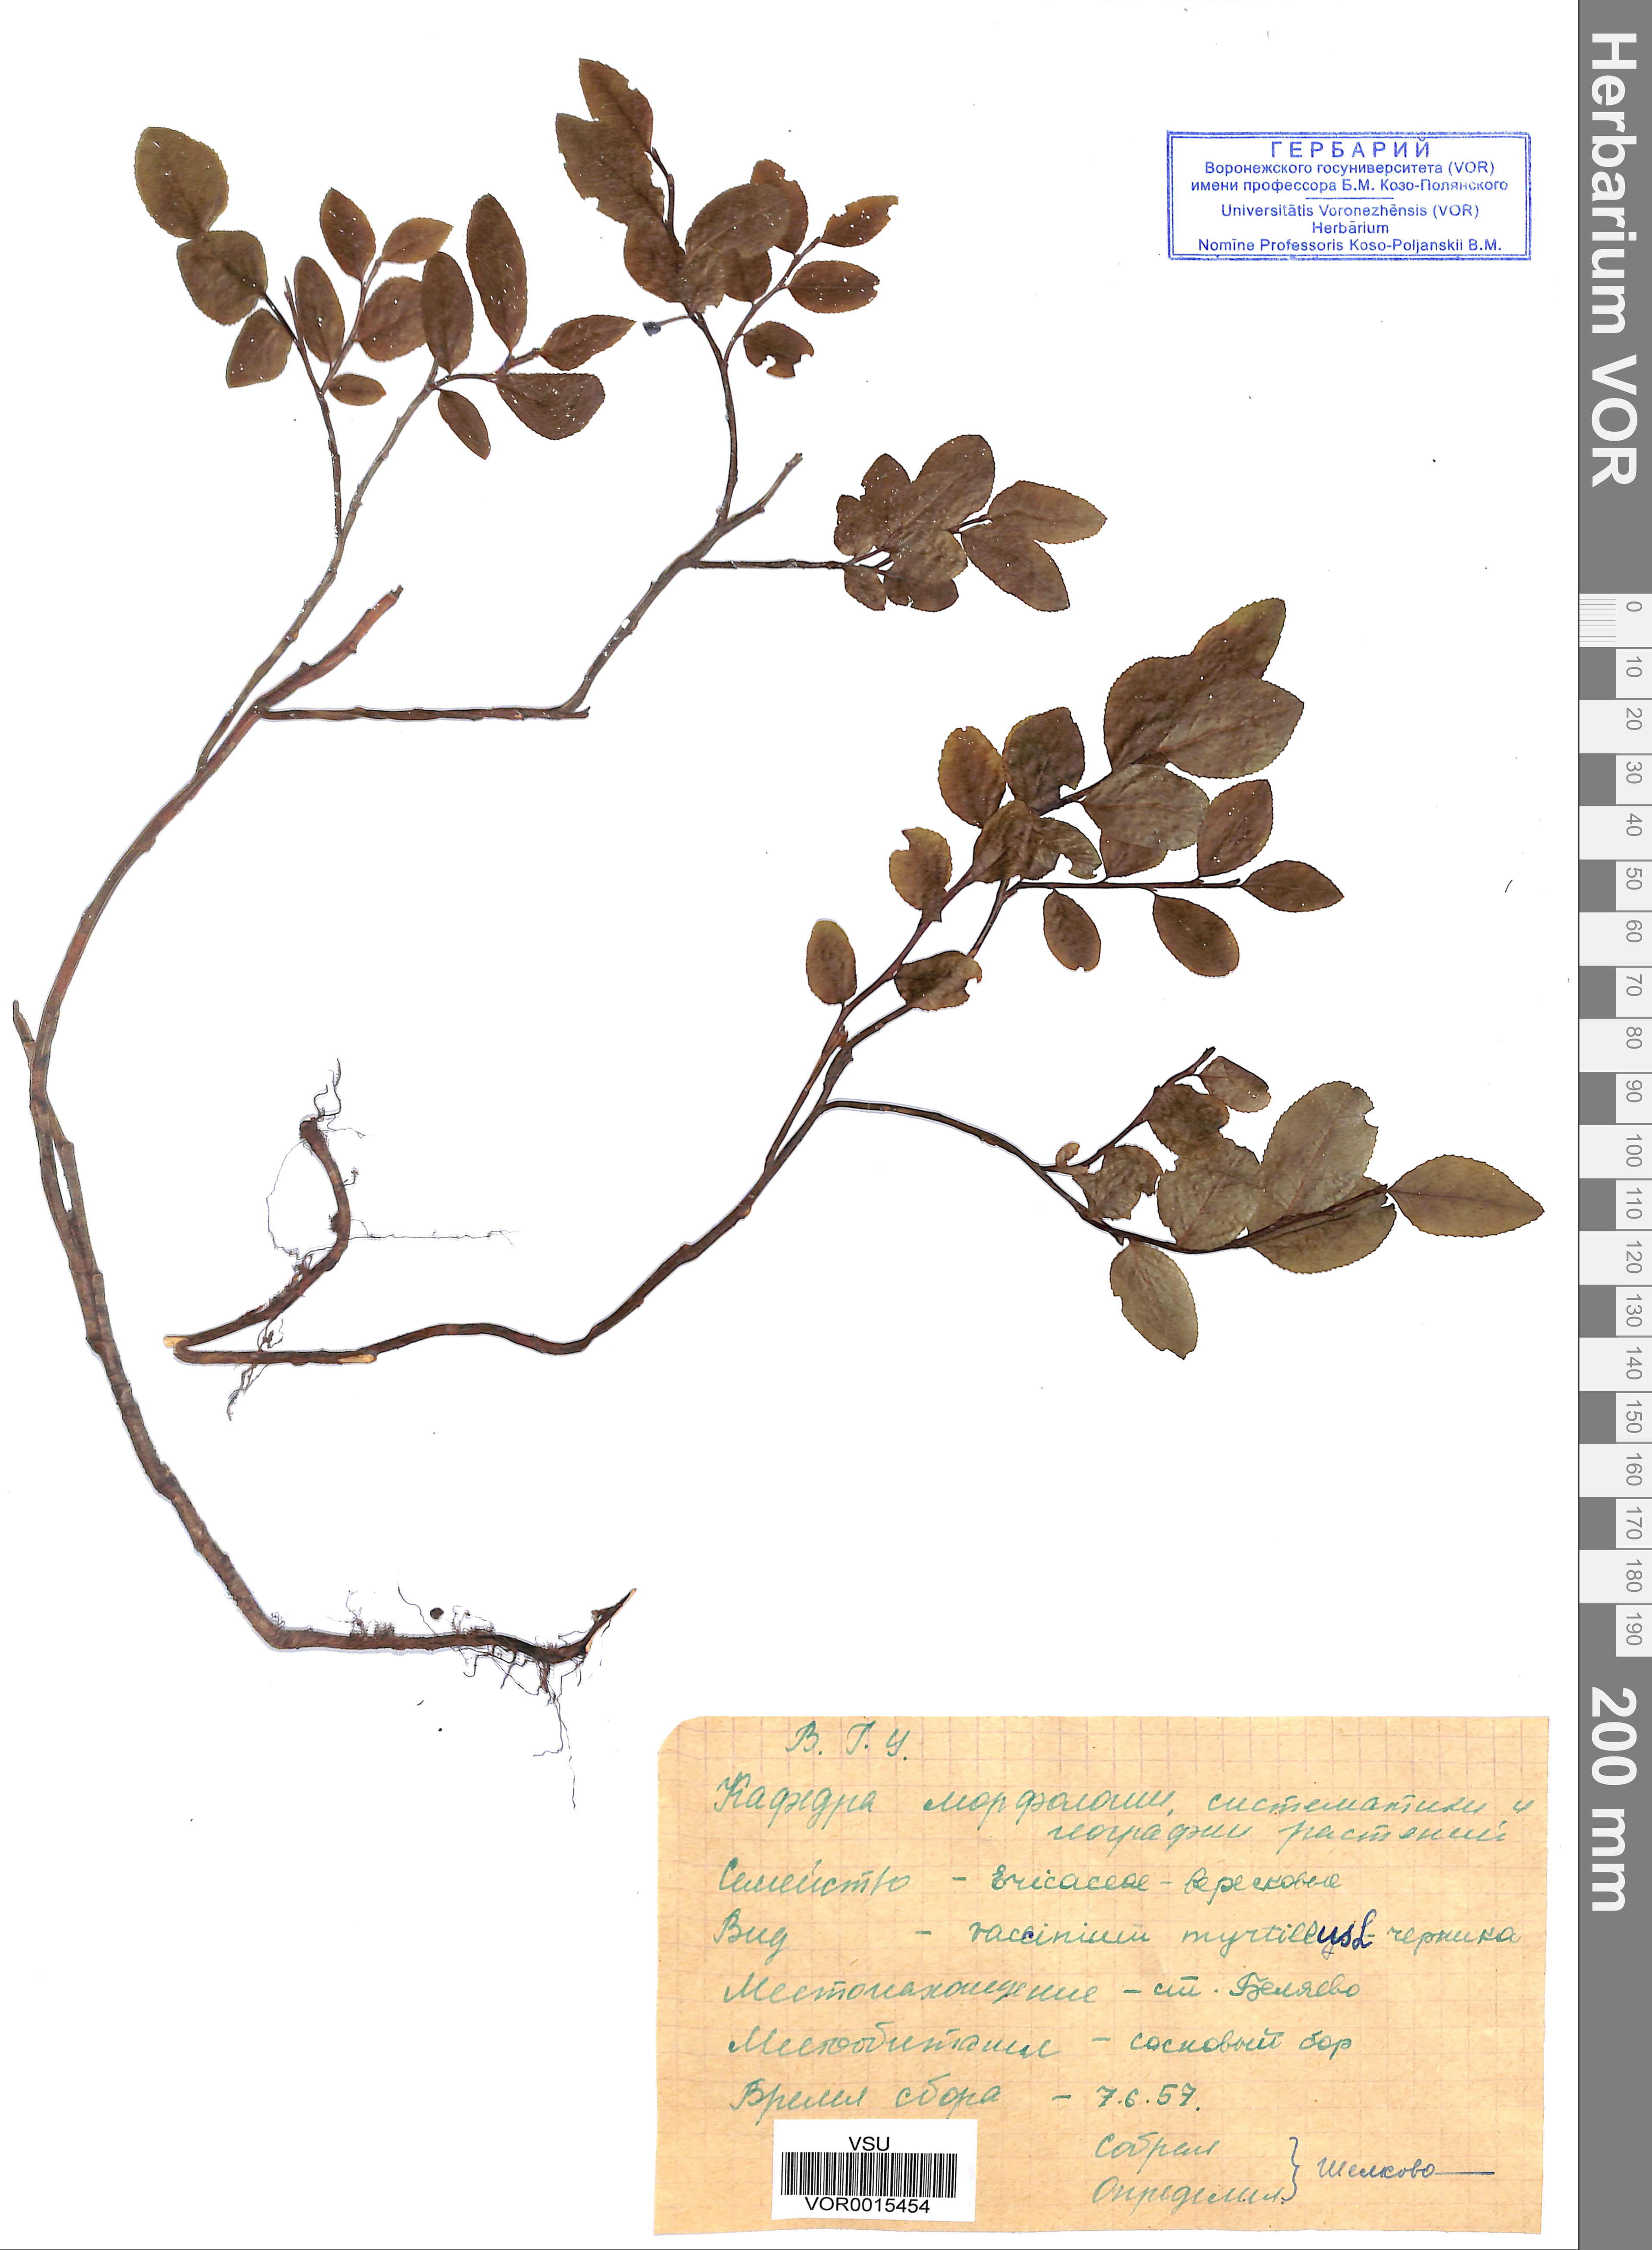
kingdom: Plantae
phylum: Tracheophyta
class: Magnoliopsida
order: Ericales
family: Ericaceae
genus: Vaccinium
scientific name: Vaccinium myrtillus
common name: Bilberry
